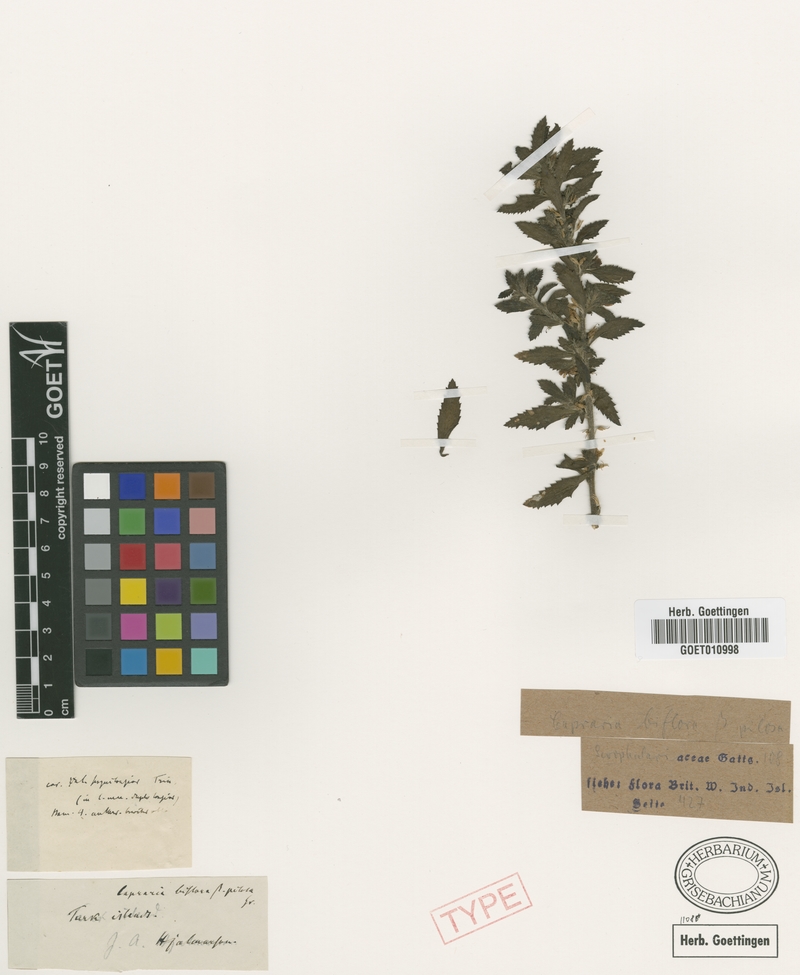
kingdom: Plantae
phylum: Tracheophyta
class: Magnoliopsida
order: Lamiales
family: Scrophulariaceae
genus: Capraria
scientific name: Capraria biflora
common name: Goatweed
